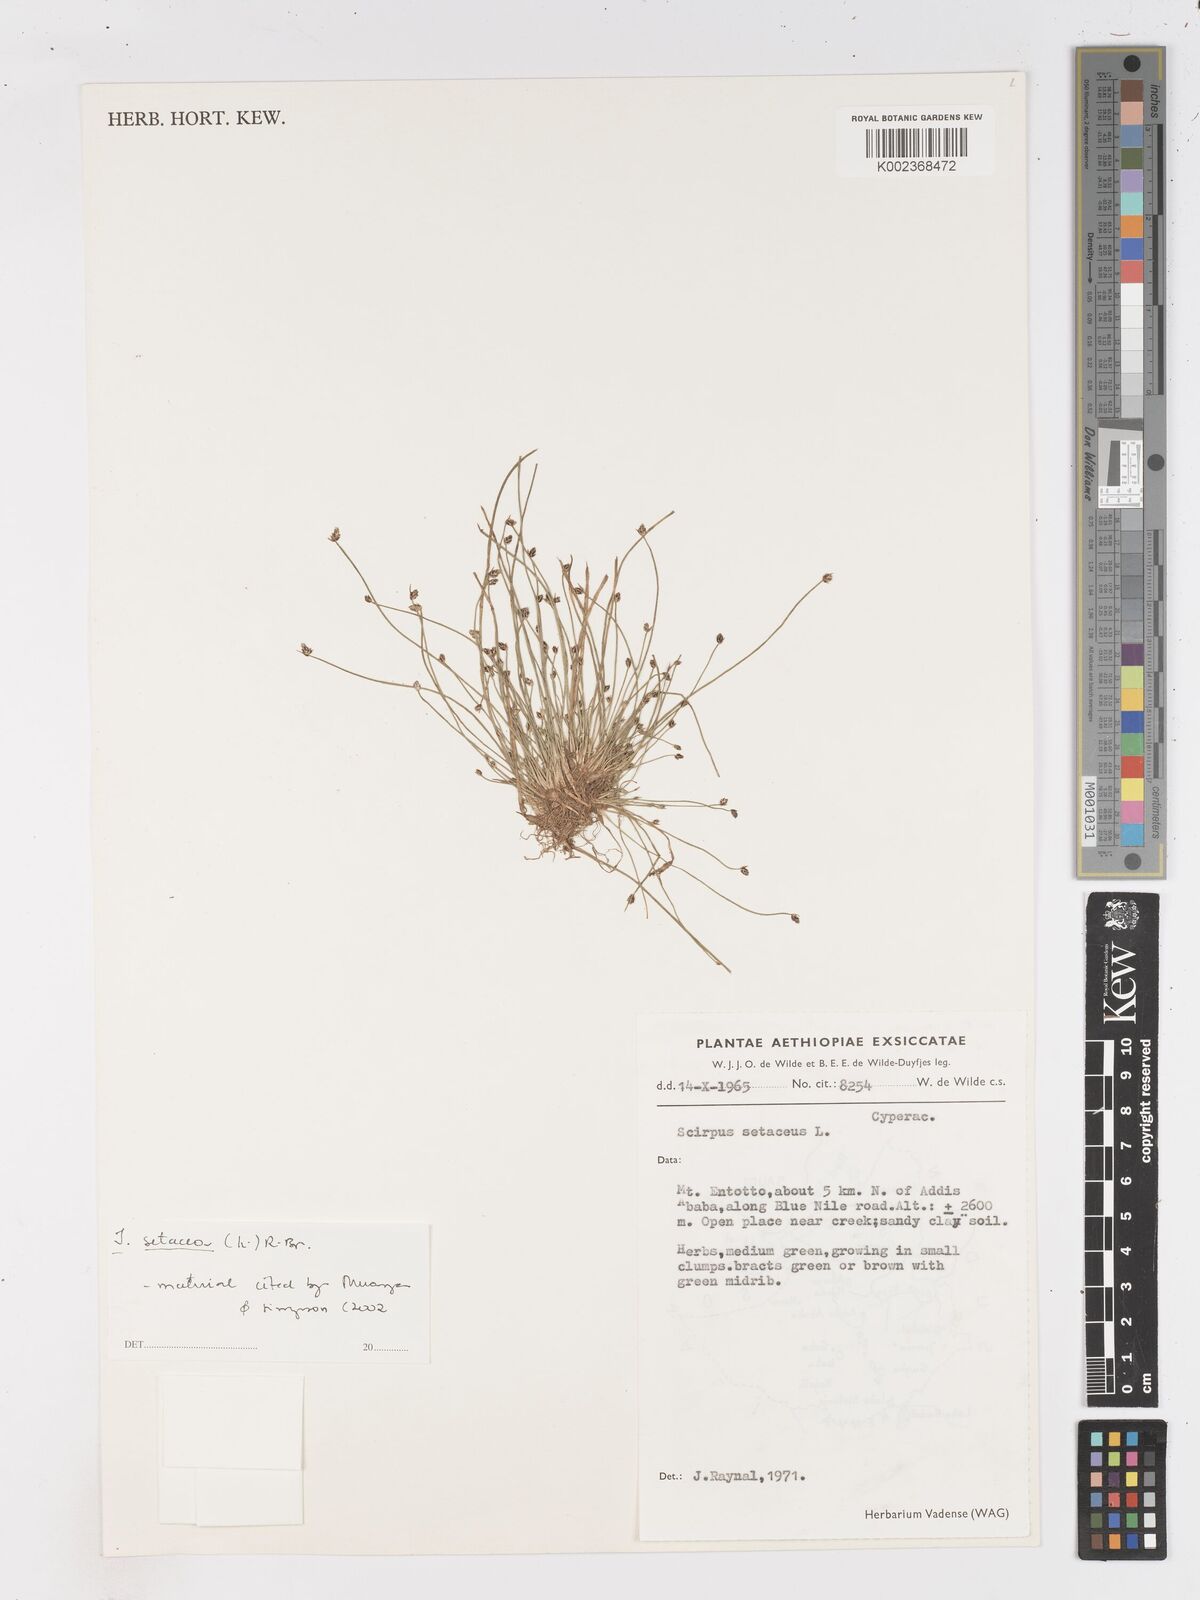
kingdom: Plantae
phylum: Tracheophyta
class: Liliopsida
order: Poales
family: Cyperaceae
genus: Isolepis
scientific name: Isolepis setacea
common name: Bristle club-rush
